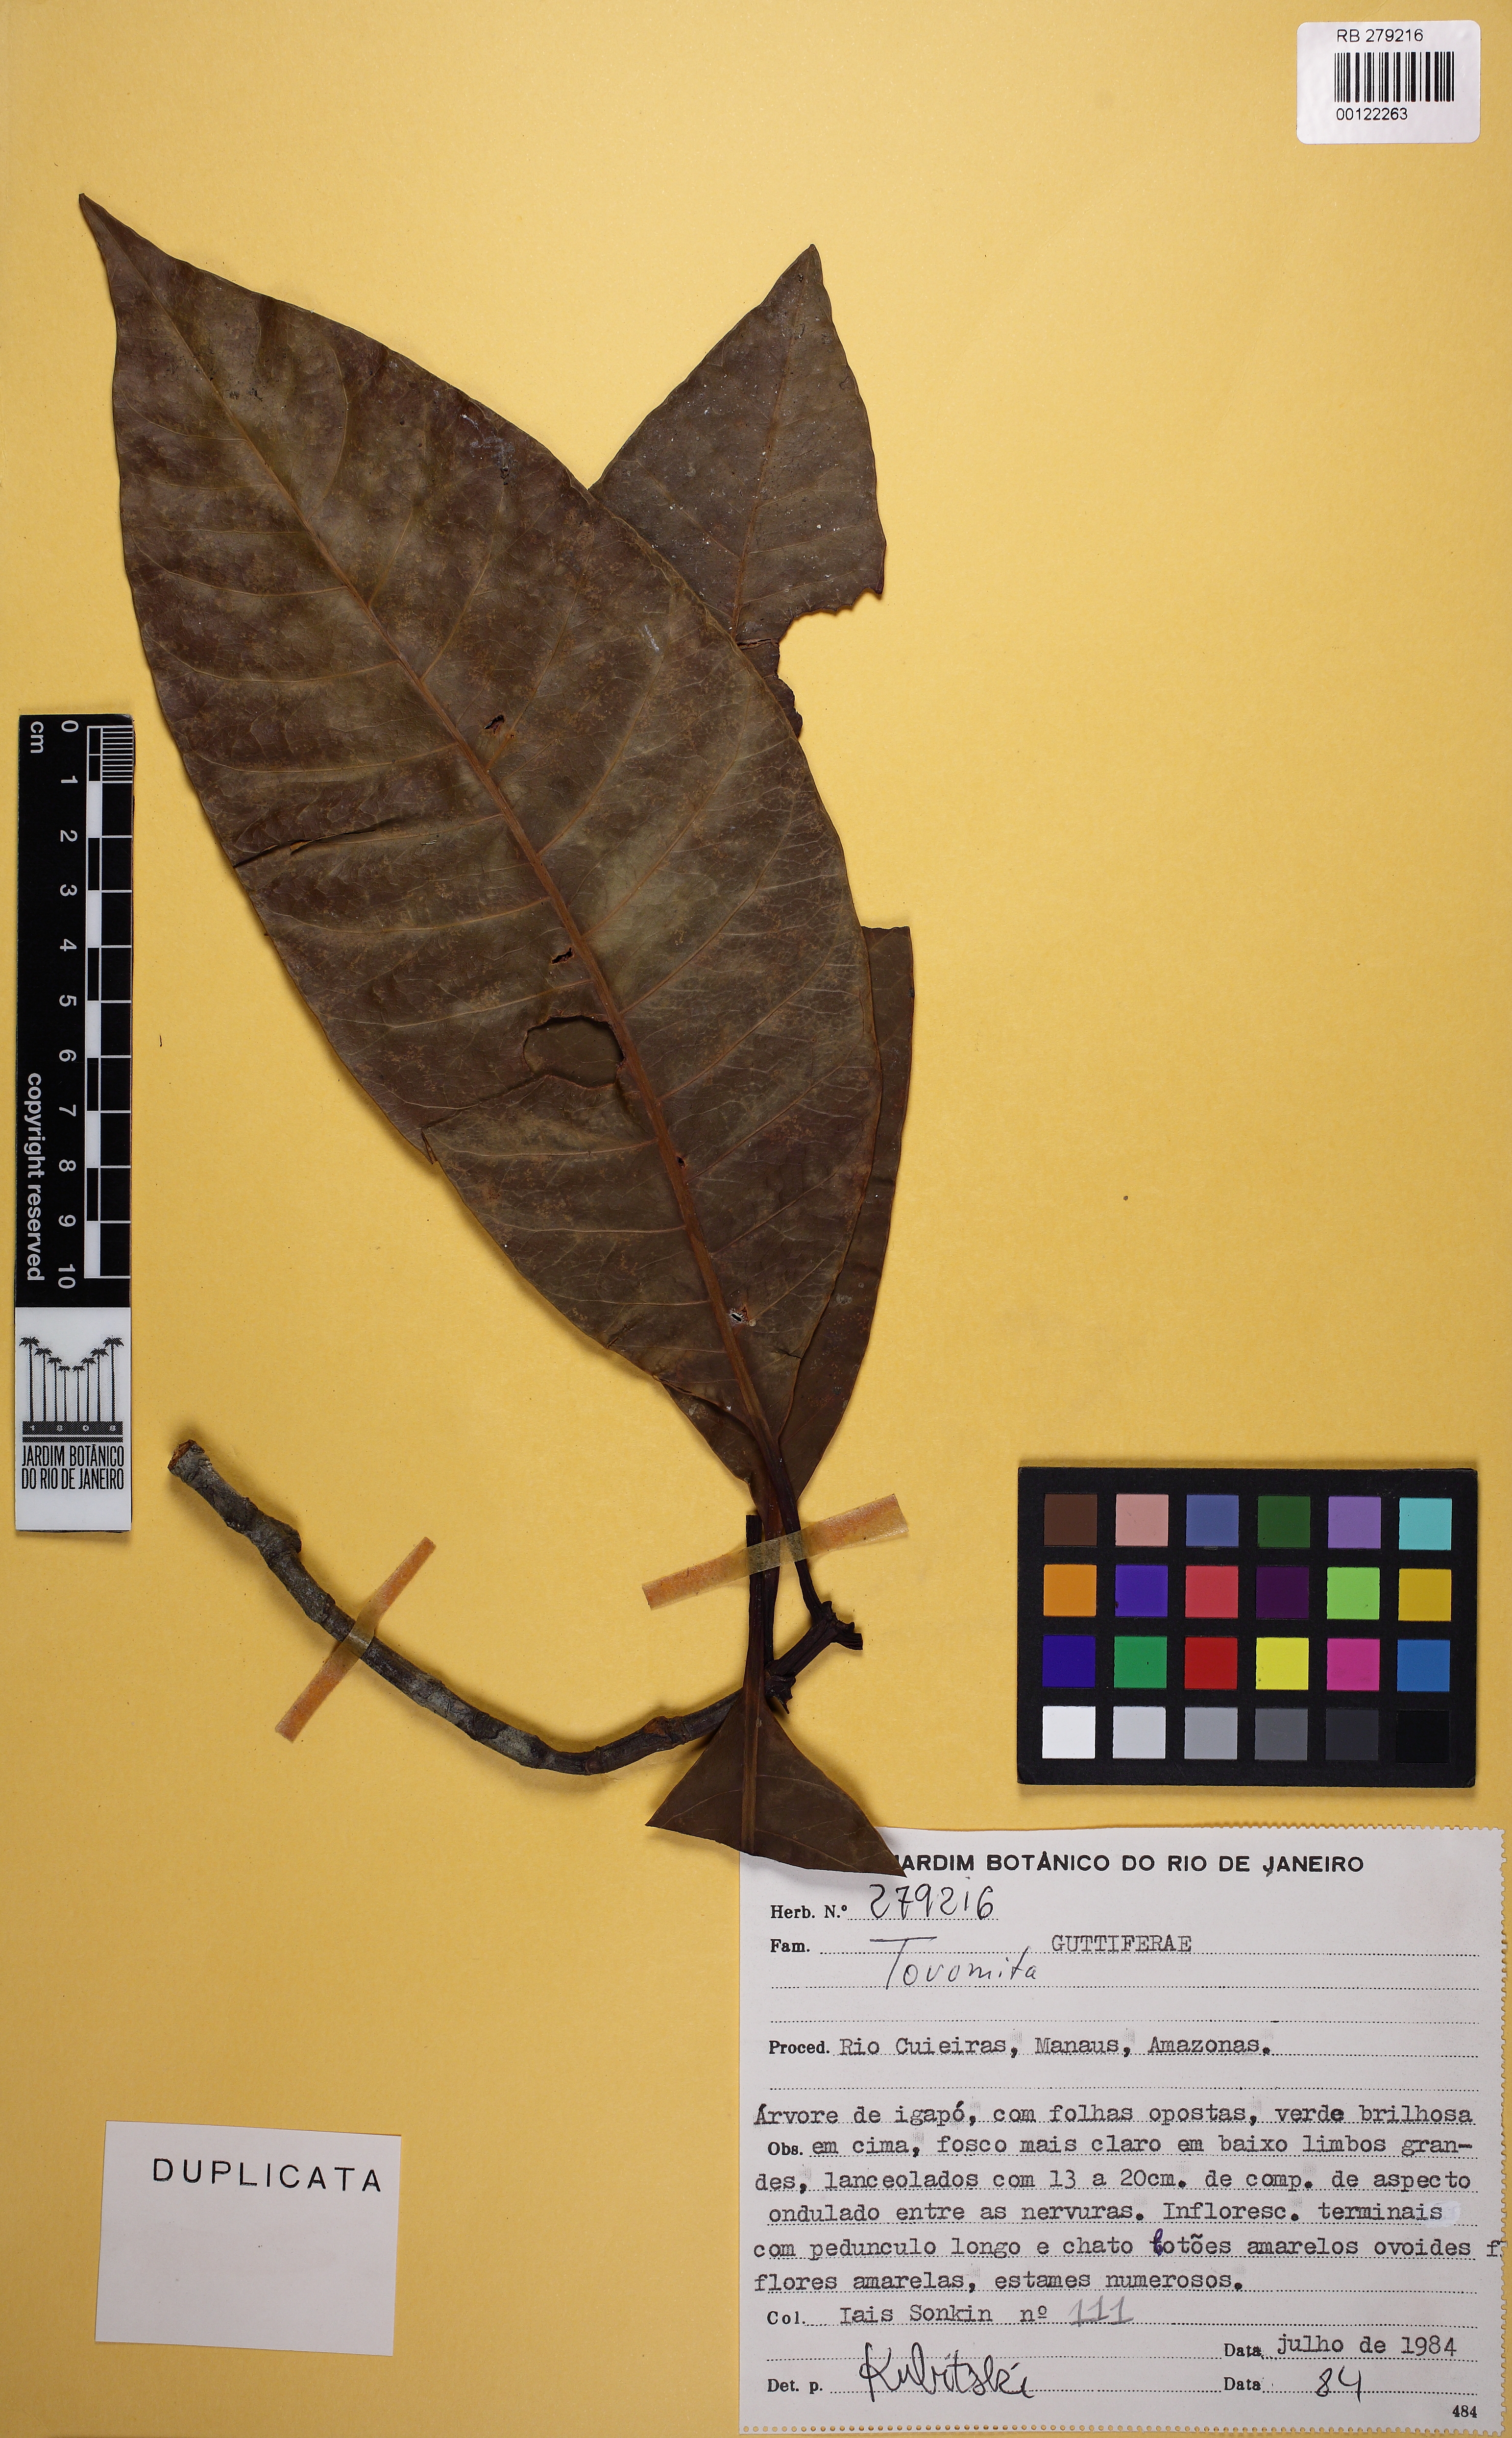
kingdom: Plantae
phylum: Tracheophyta
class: Magnoliopsida
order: Malpighiales
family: Clusiaceae
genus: Tovomita
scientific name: Tovomita macrophylla
